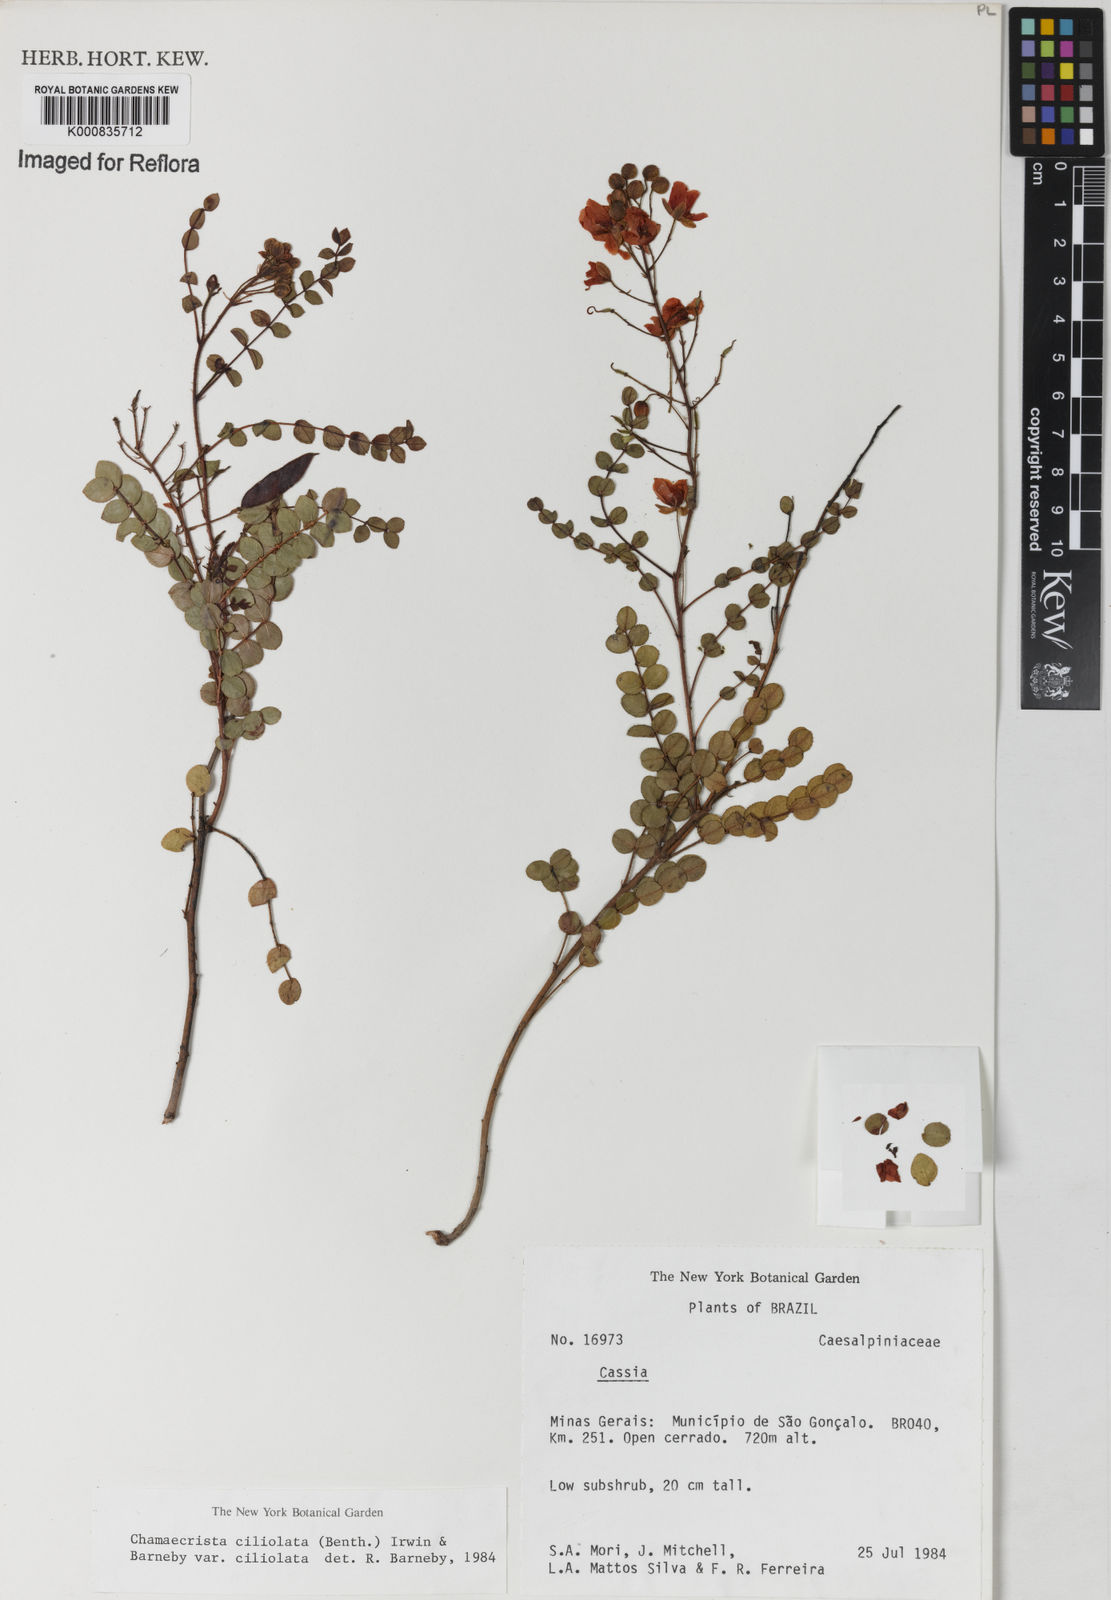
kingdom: Plantae
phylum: Tracheophyta
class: Magnoliopsida
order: Fabales
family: Fabaceae
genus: Chamaecrista
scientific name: Chamaecrista ciliolata
